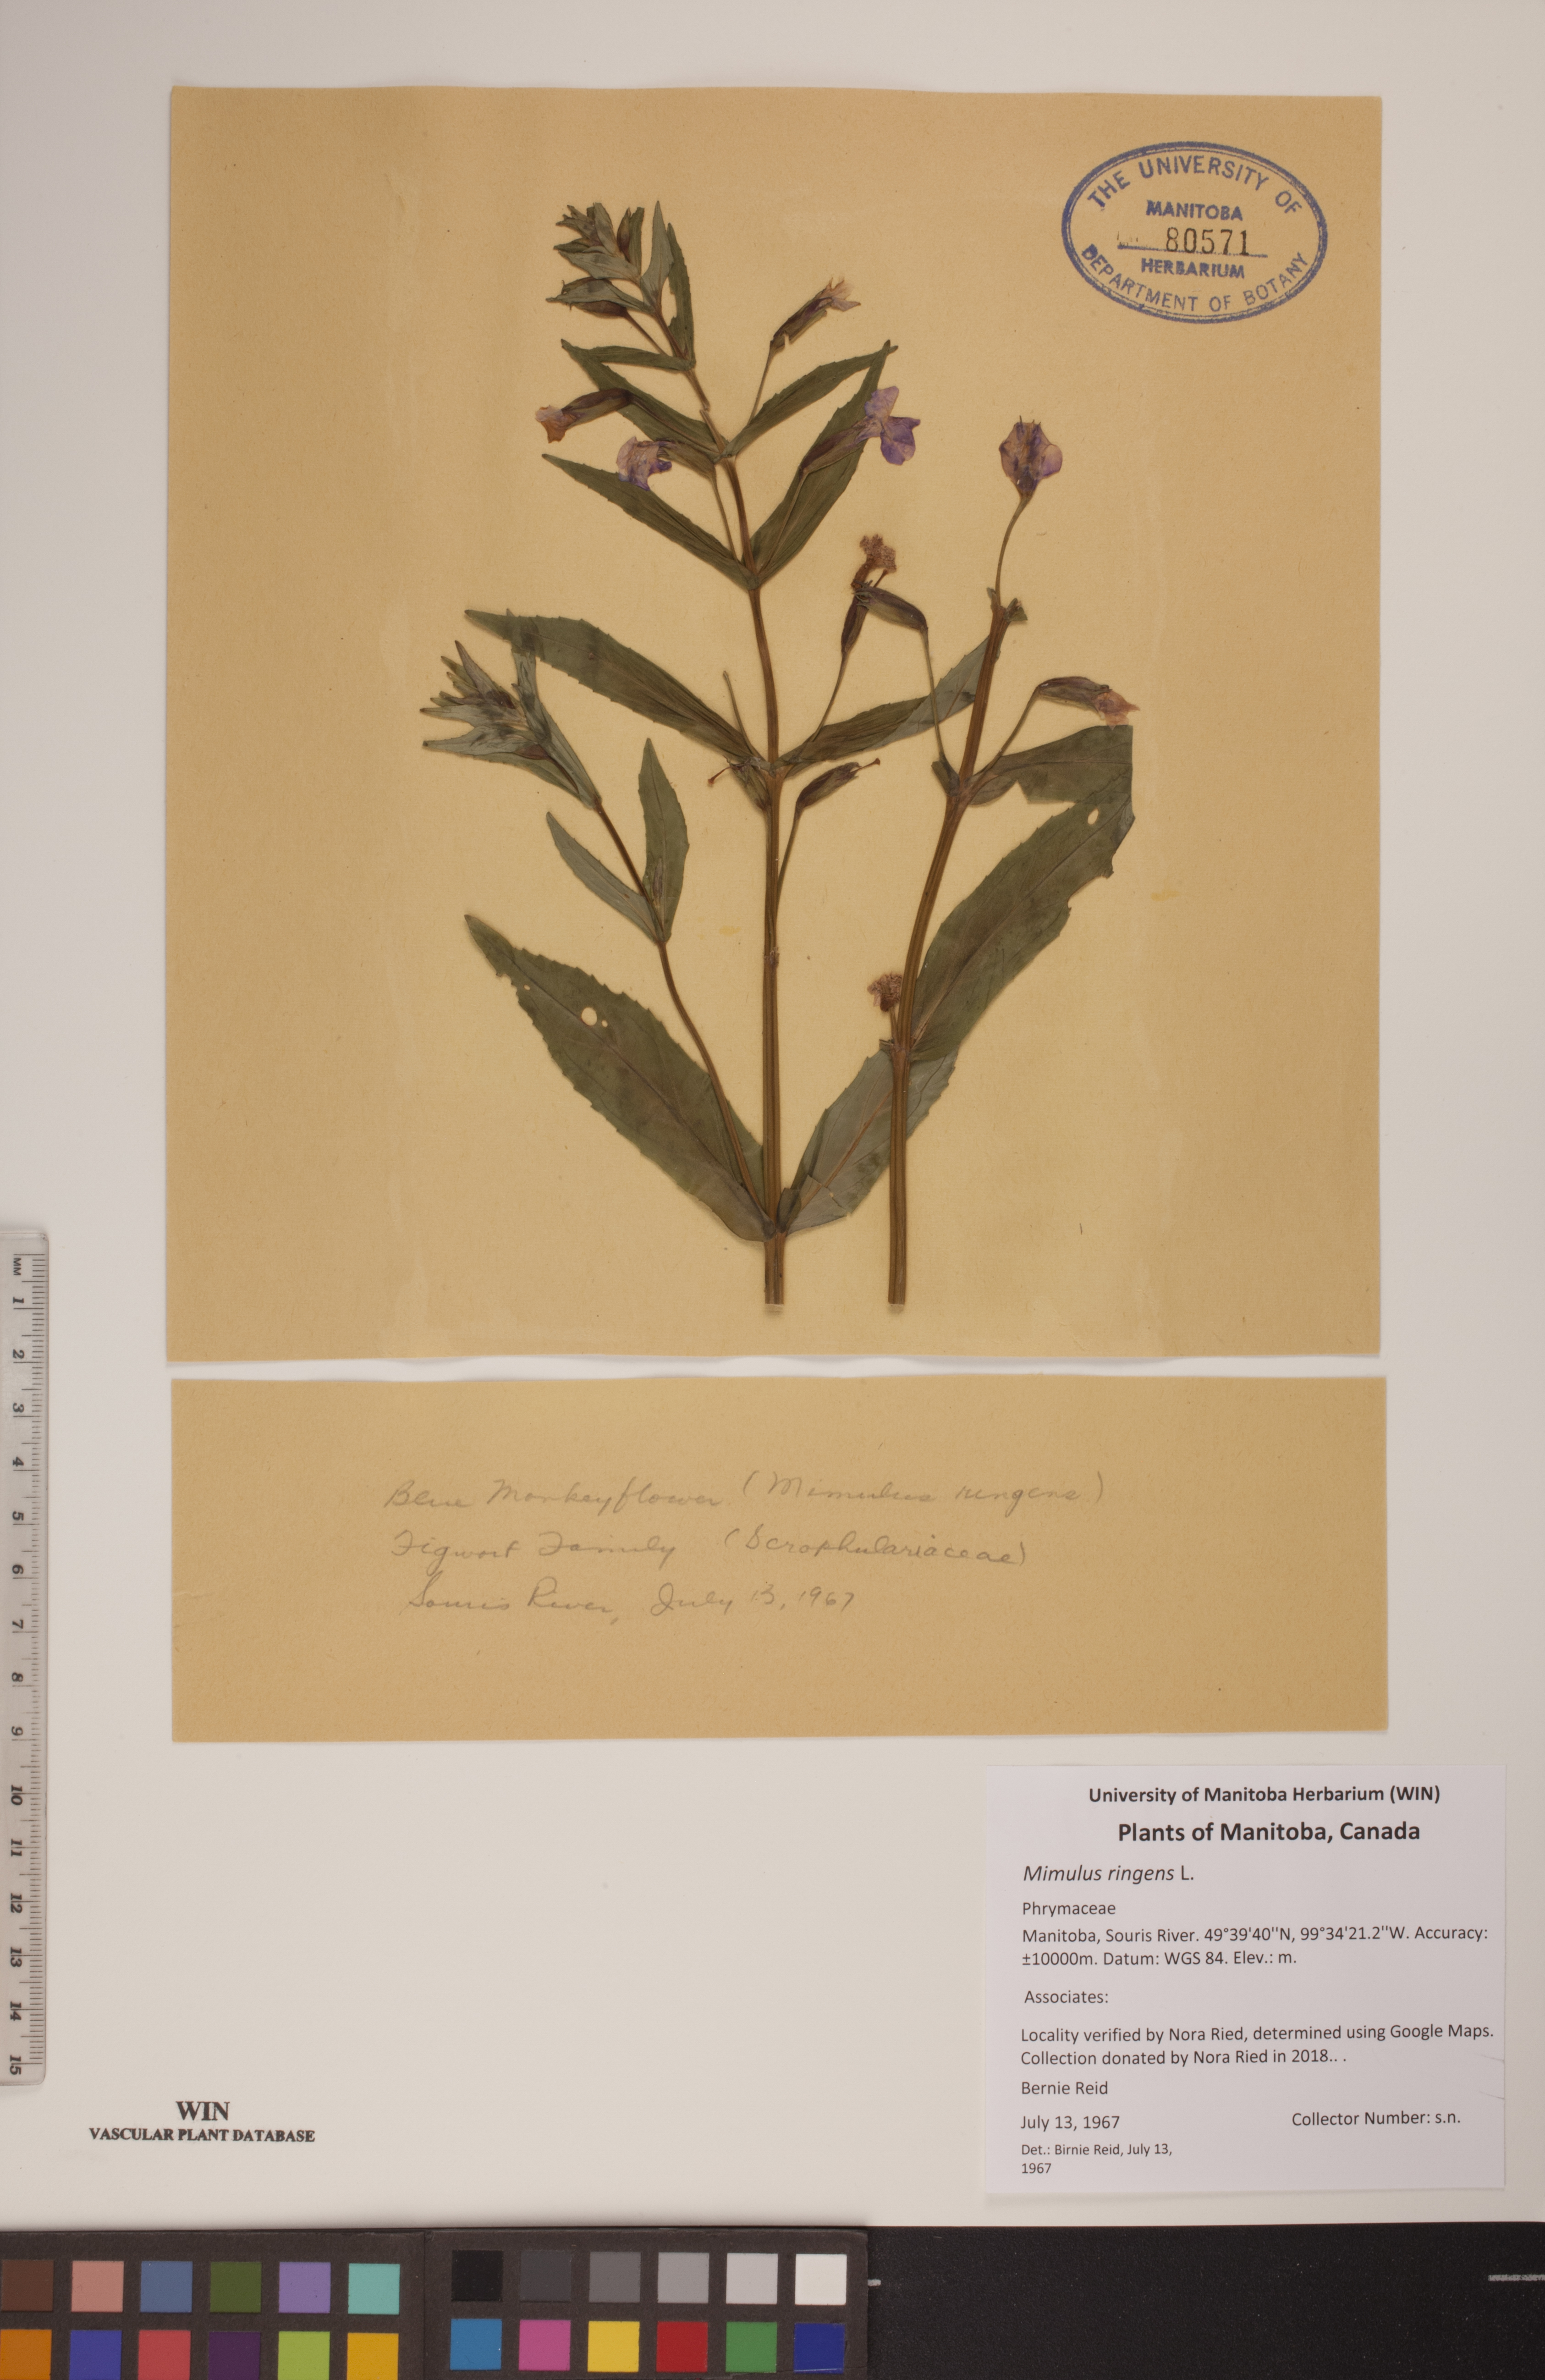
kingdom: Plantae
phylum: Tracheophyta
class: Magnoliopsida
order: Lamiales
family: Phrymaceae
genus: Mimulus
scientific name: Mimulus ringens
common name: Allegheny monkeyflower
